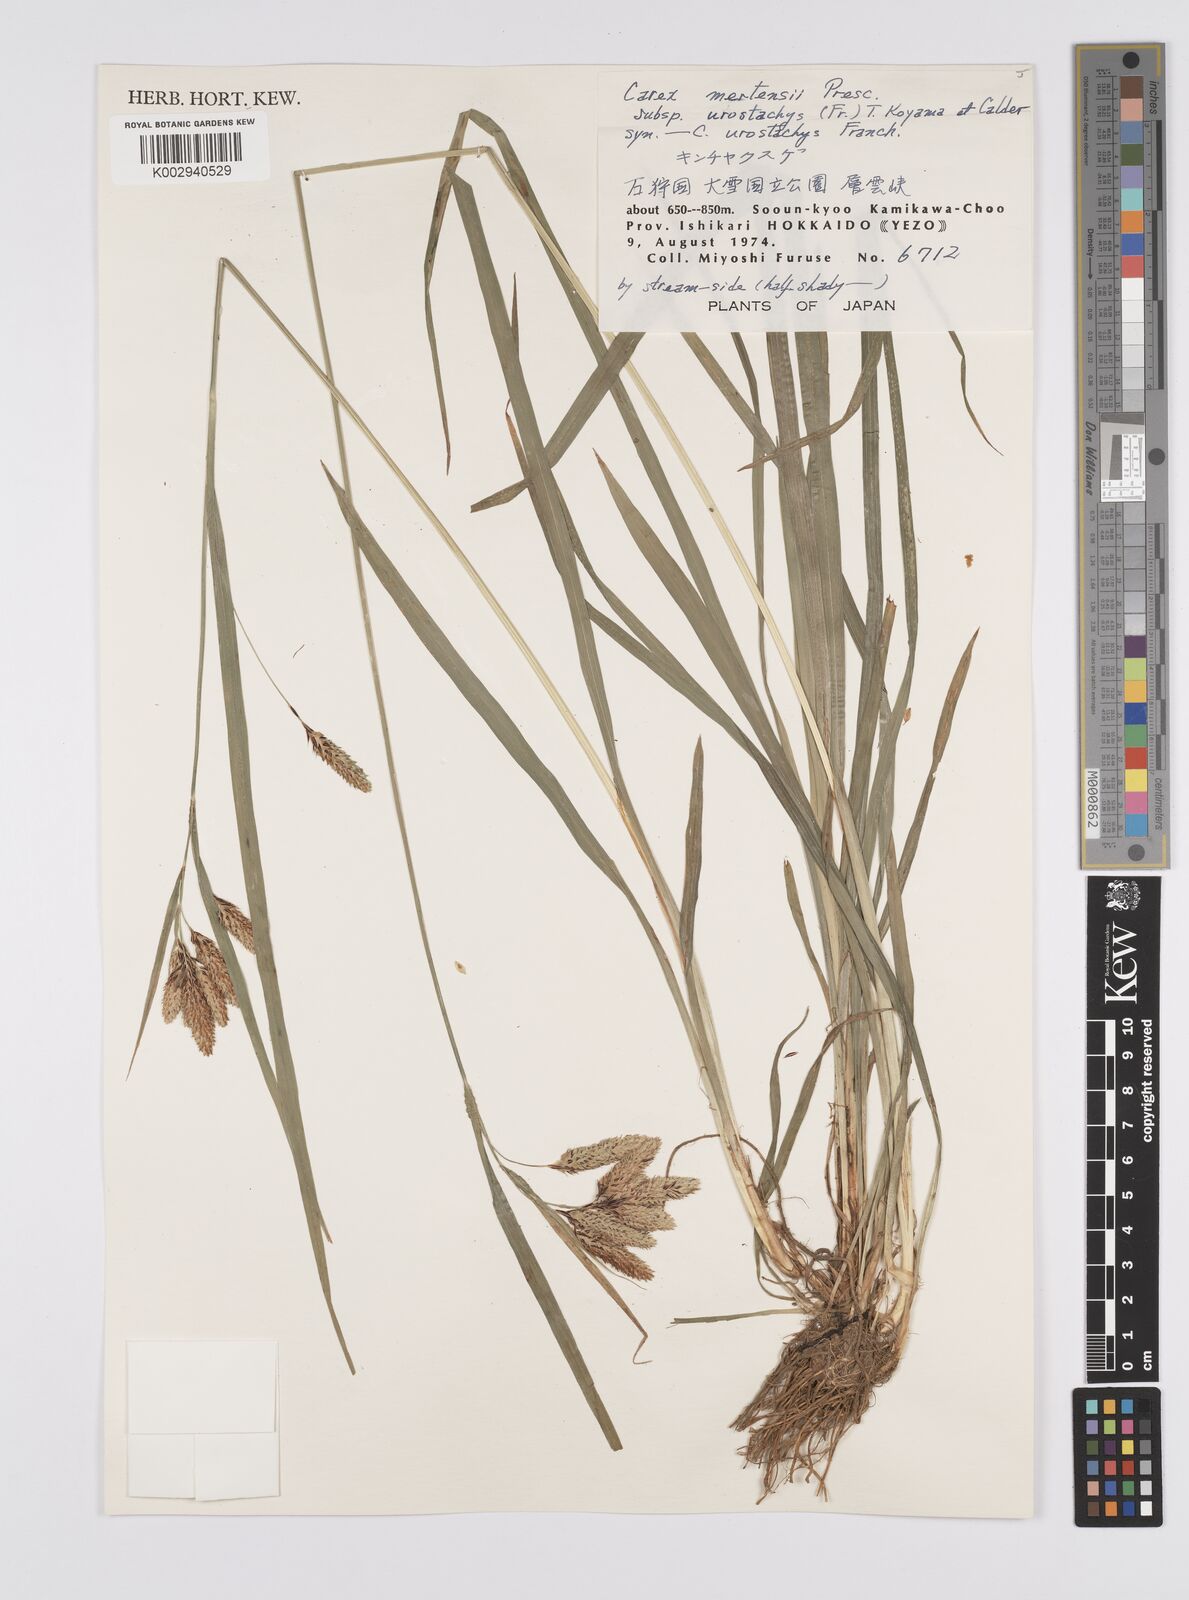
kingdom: Plantae
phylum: Tracheophyta
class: Liliopsida
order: Poales
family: Cyperaceae
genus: Carex
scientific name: Carex mertensii
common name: Mertens' sedge
